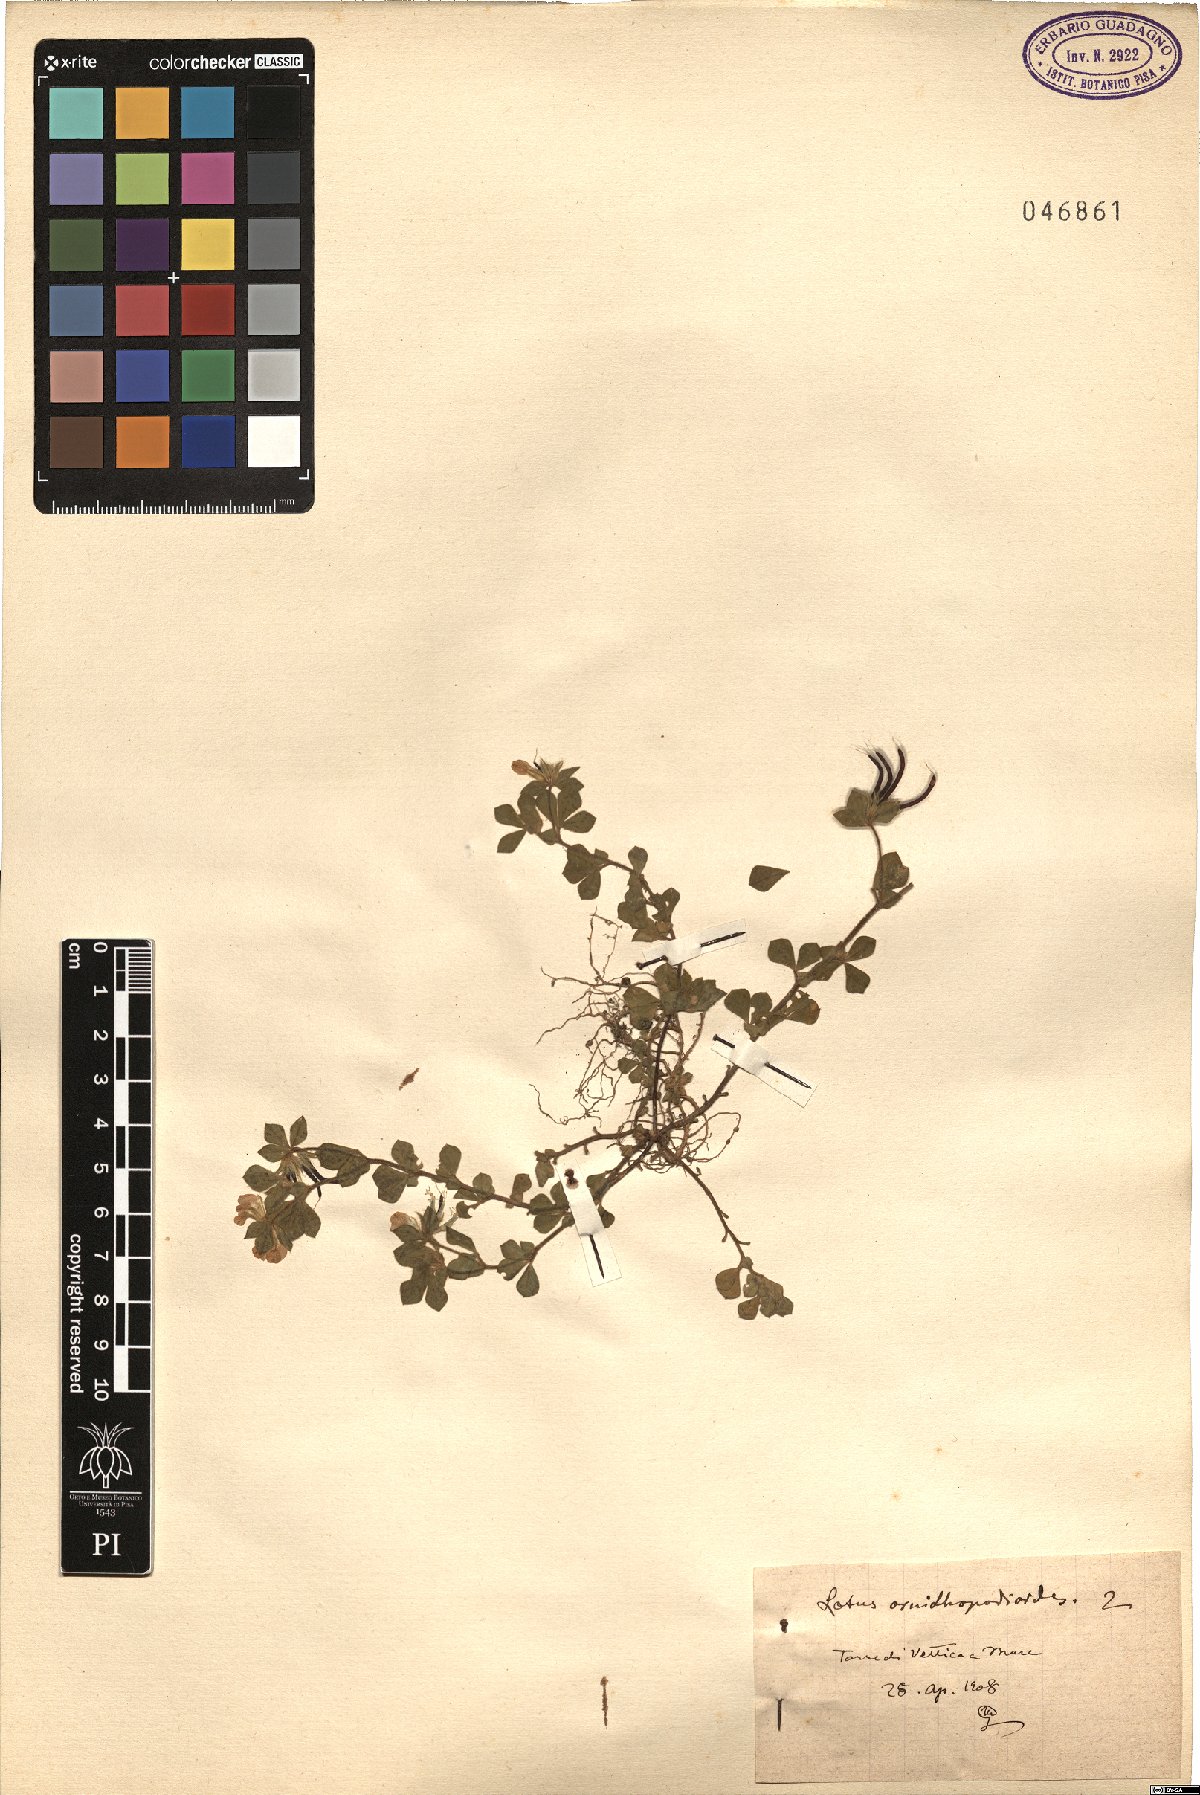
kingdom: Plantae
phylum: Tracheophyta
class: Magnoliopsida
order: Fabales
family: Fabaceae
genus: Lotus
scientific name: Lotus ornithopodioides
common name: Southern bird's-foot trefoil
